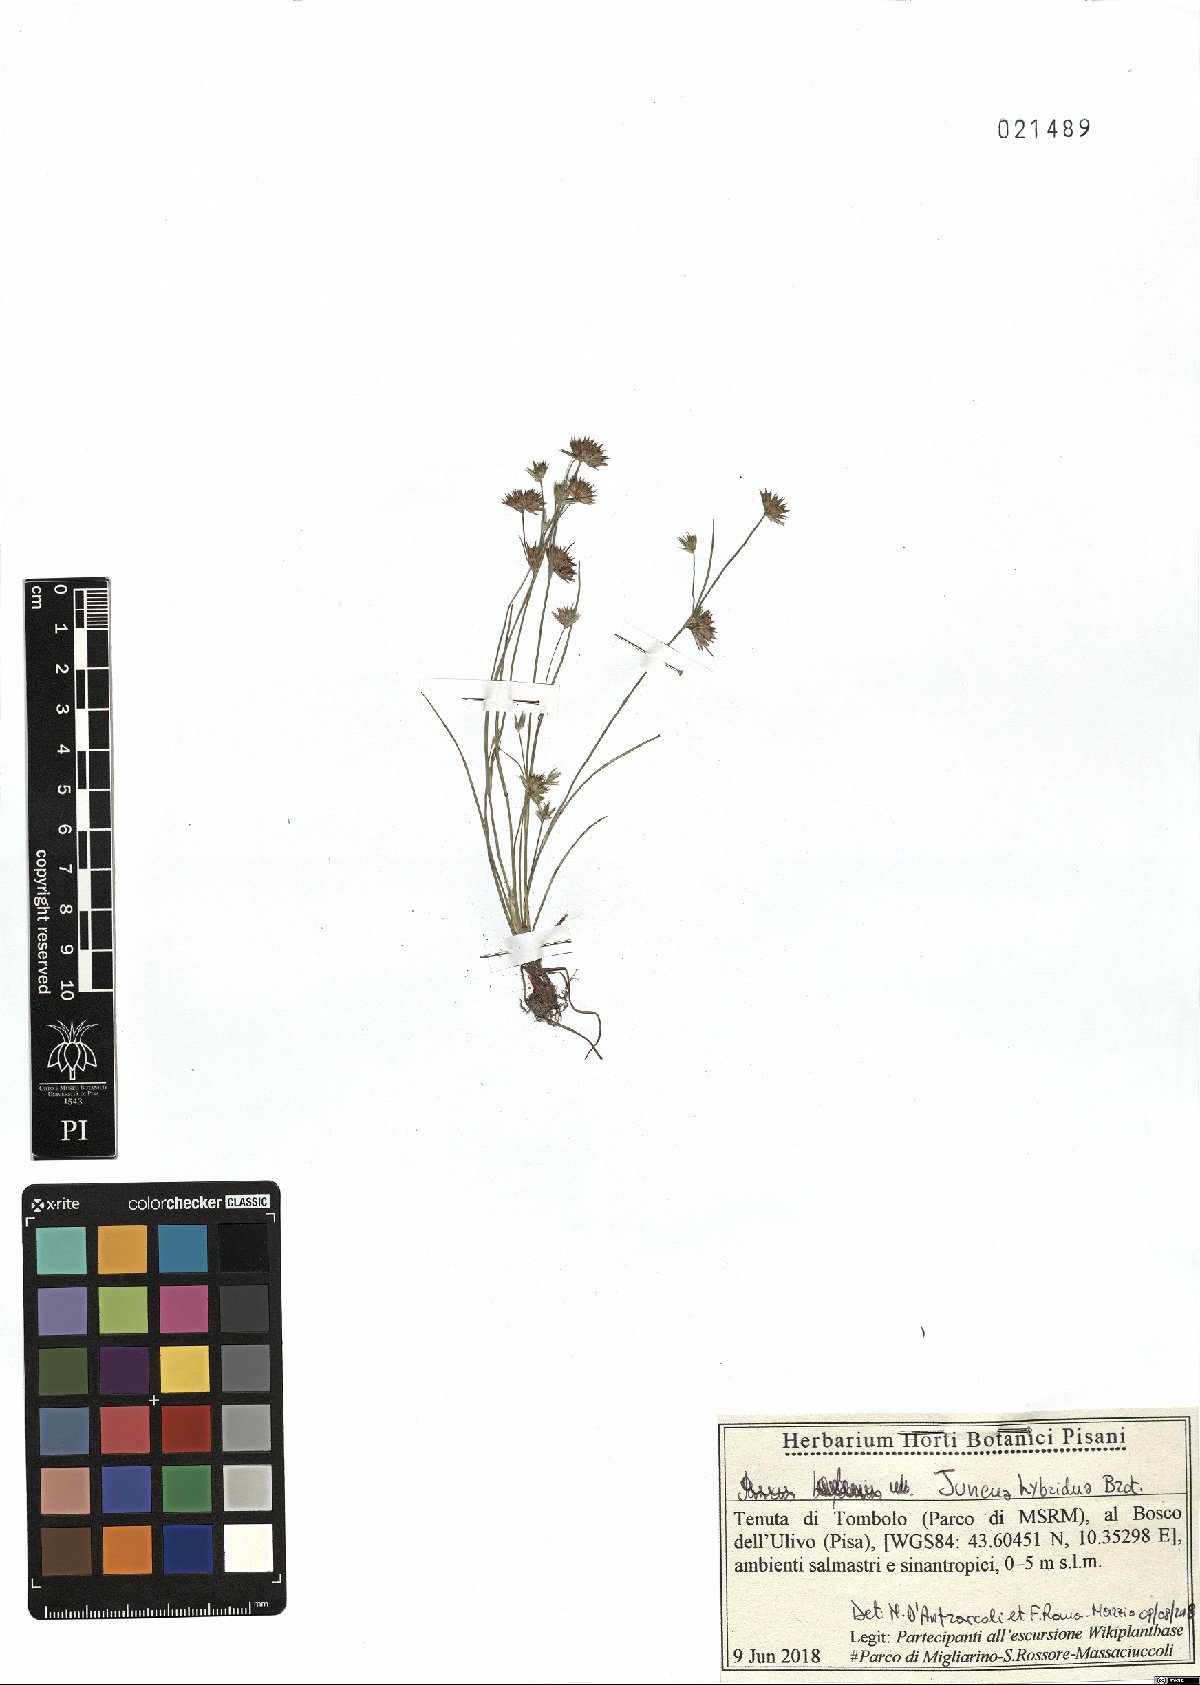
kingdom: Plantae
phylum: Tracheophyta
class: Liliopsida
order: Poales
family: Juncaceae
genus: Juncus
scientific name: Juncus hybridus
